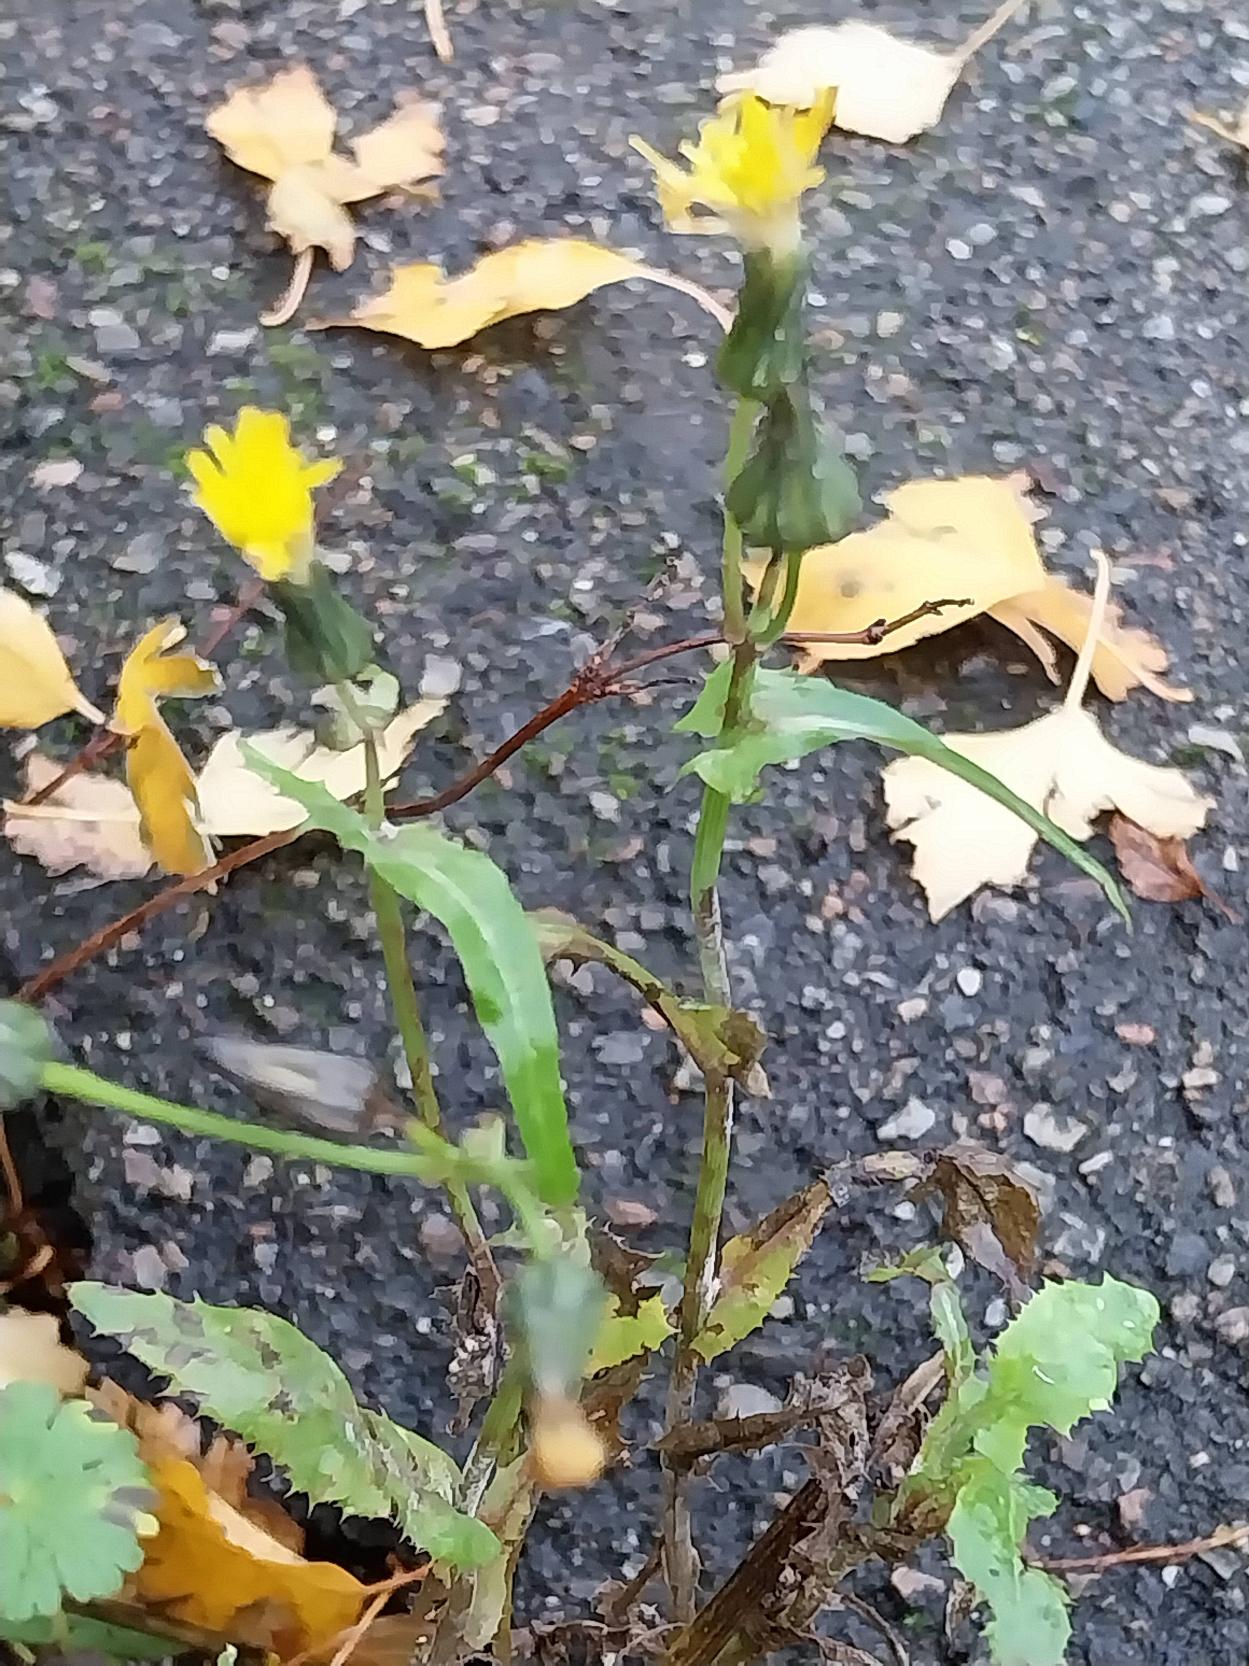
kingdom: Plantae
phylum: Tracheophyta
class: Magnoliopsida
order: Asterales
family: Asteraceae
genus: Sonchus
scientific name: Sonchus oleraceus
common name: Almindelig svinemælk
